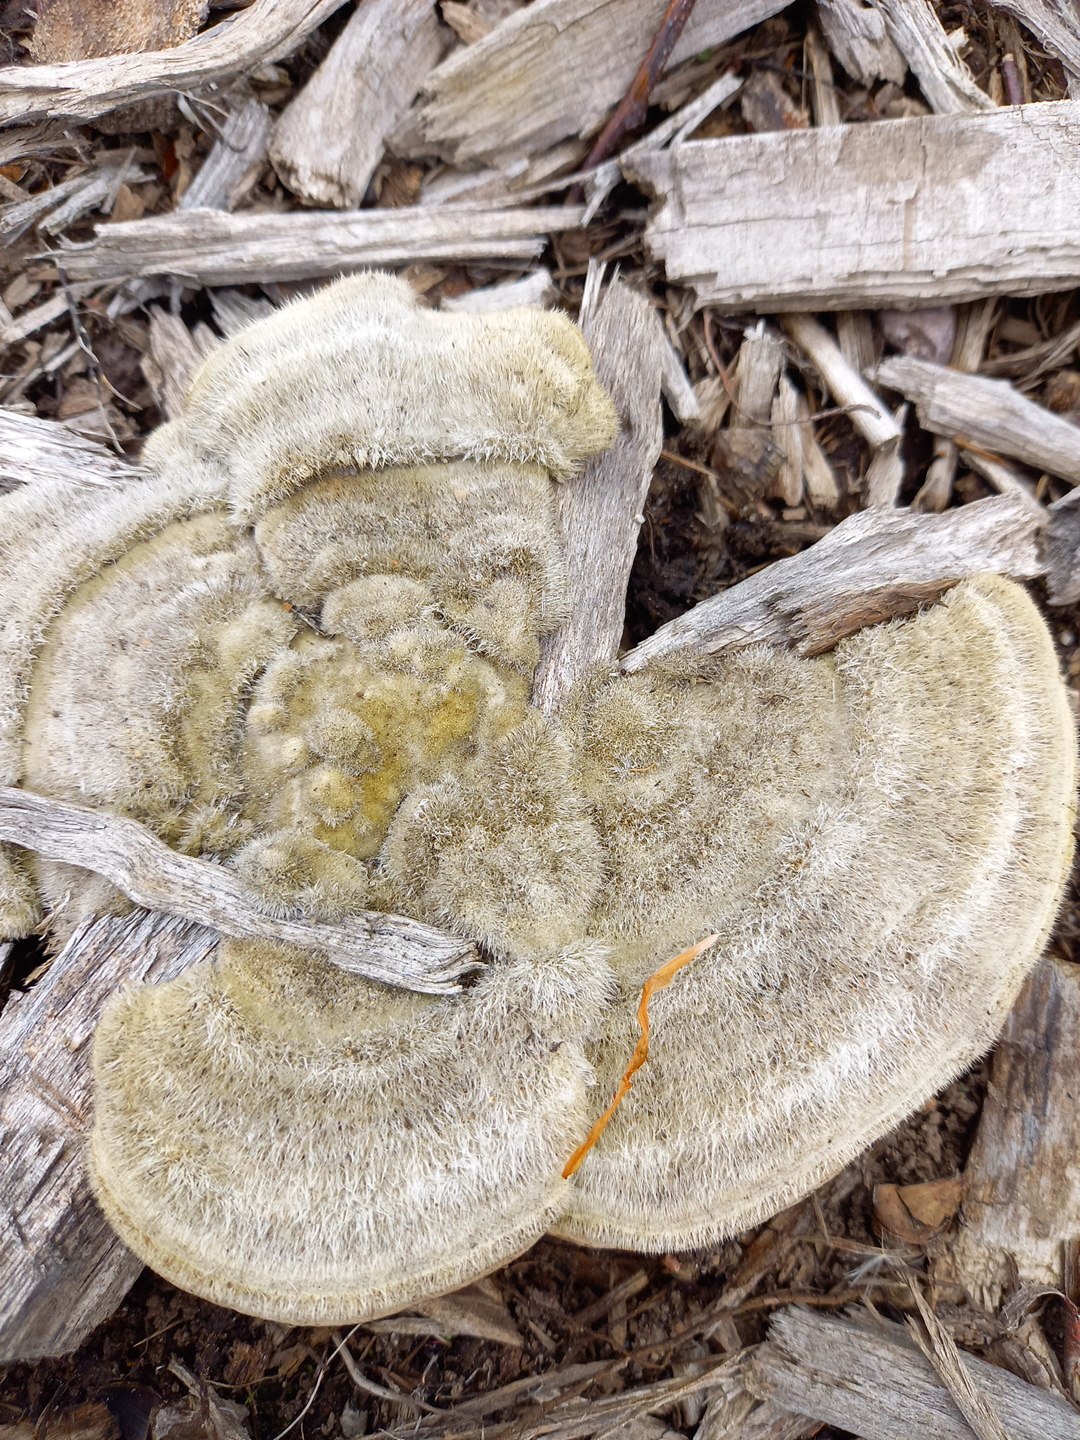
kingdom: Fungi
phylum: Basidiomycota
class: Agaricomycetes
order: Polyporales
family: Polyporaceae
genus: Trametes
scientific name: Trametes hirsuta
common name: håret læderporesvamp
